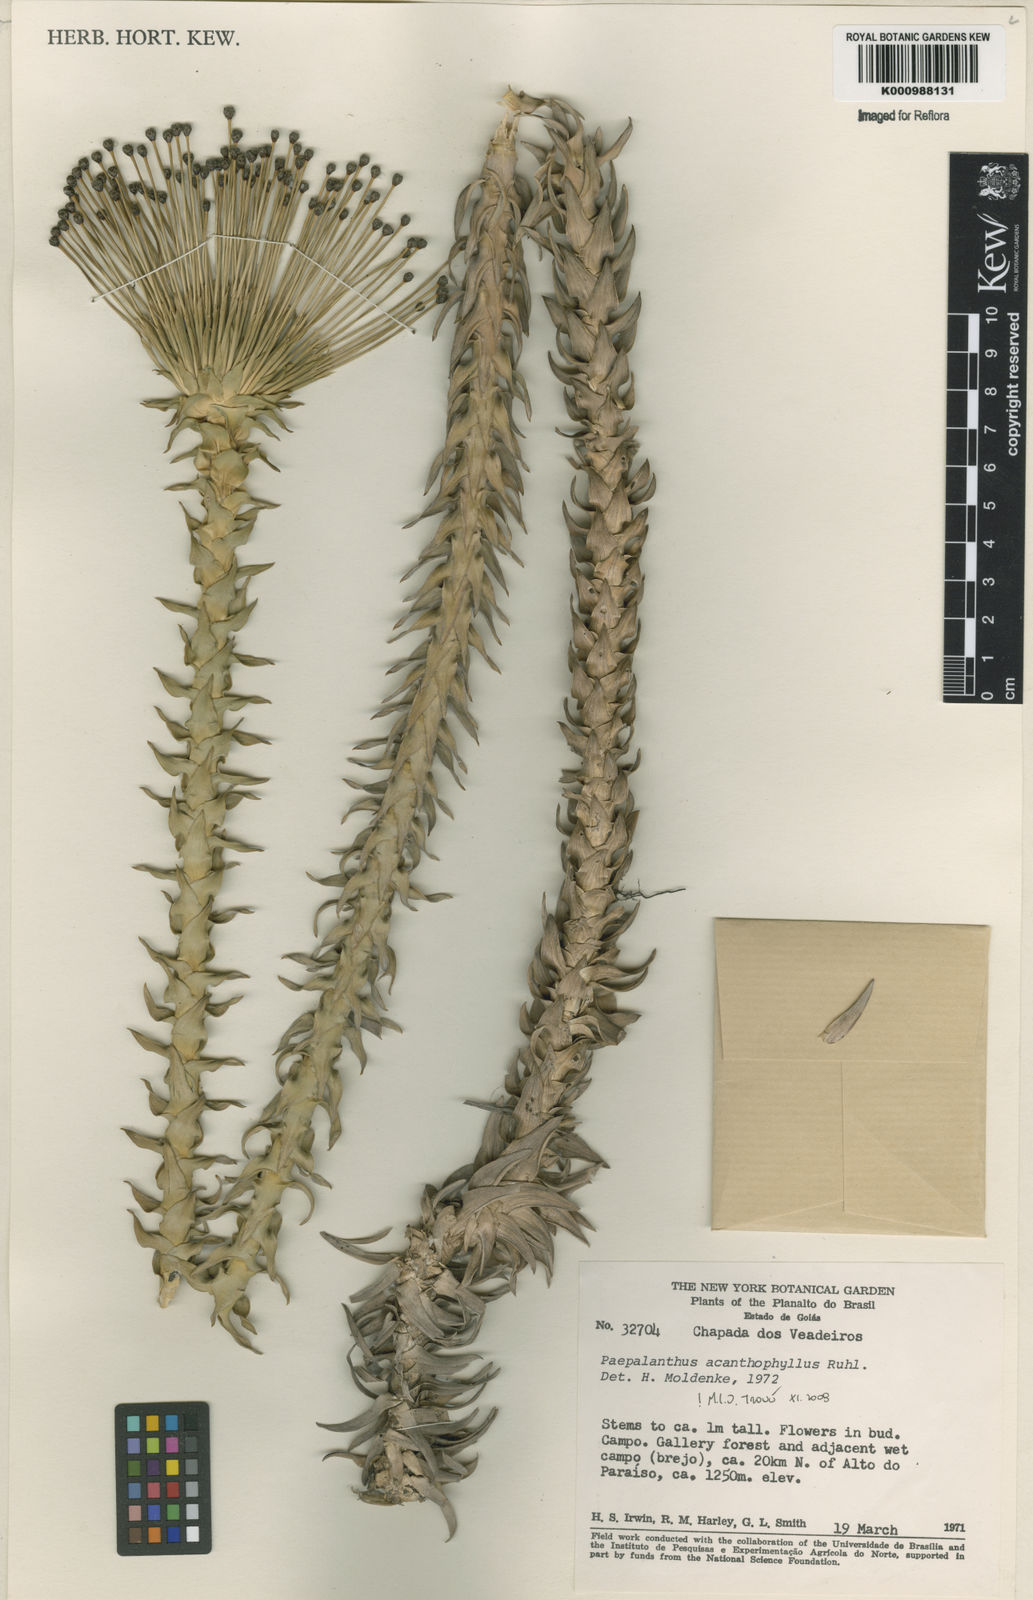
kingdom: Plantae
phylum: Tracheophyta
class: Liliopsida
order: Poales
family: Eriocaulaceae
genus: Paepalanthus
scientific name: Paepalanthus acanthophyllus
